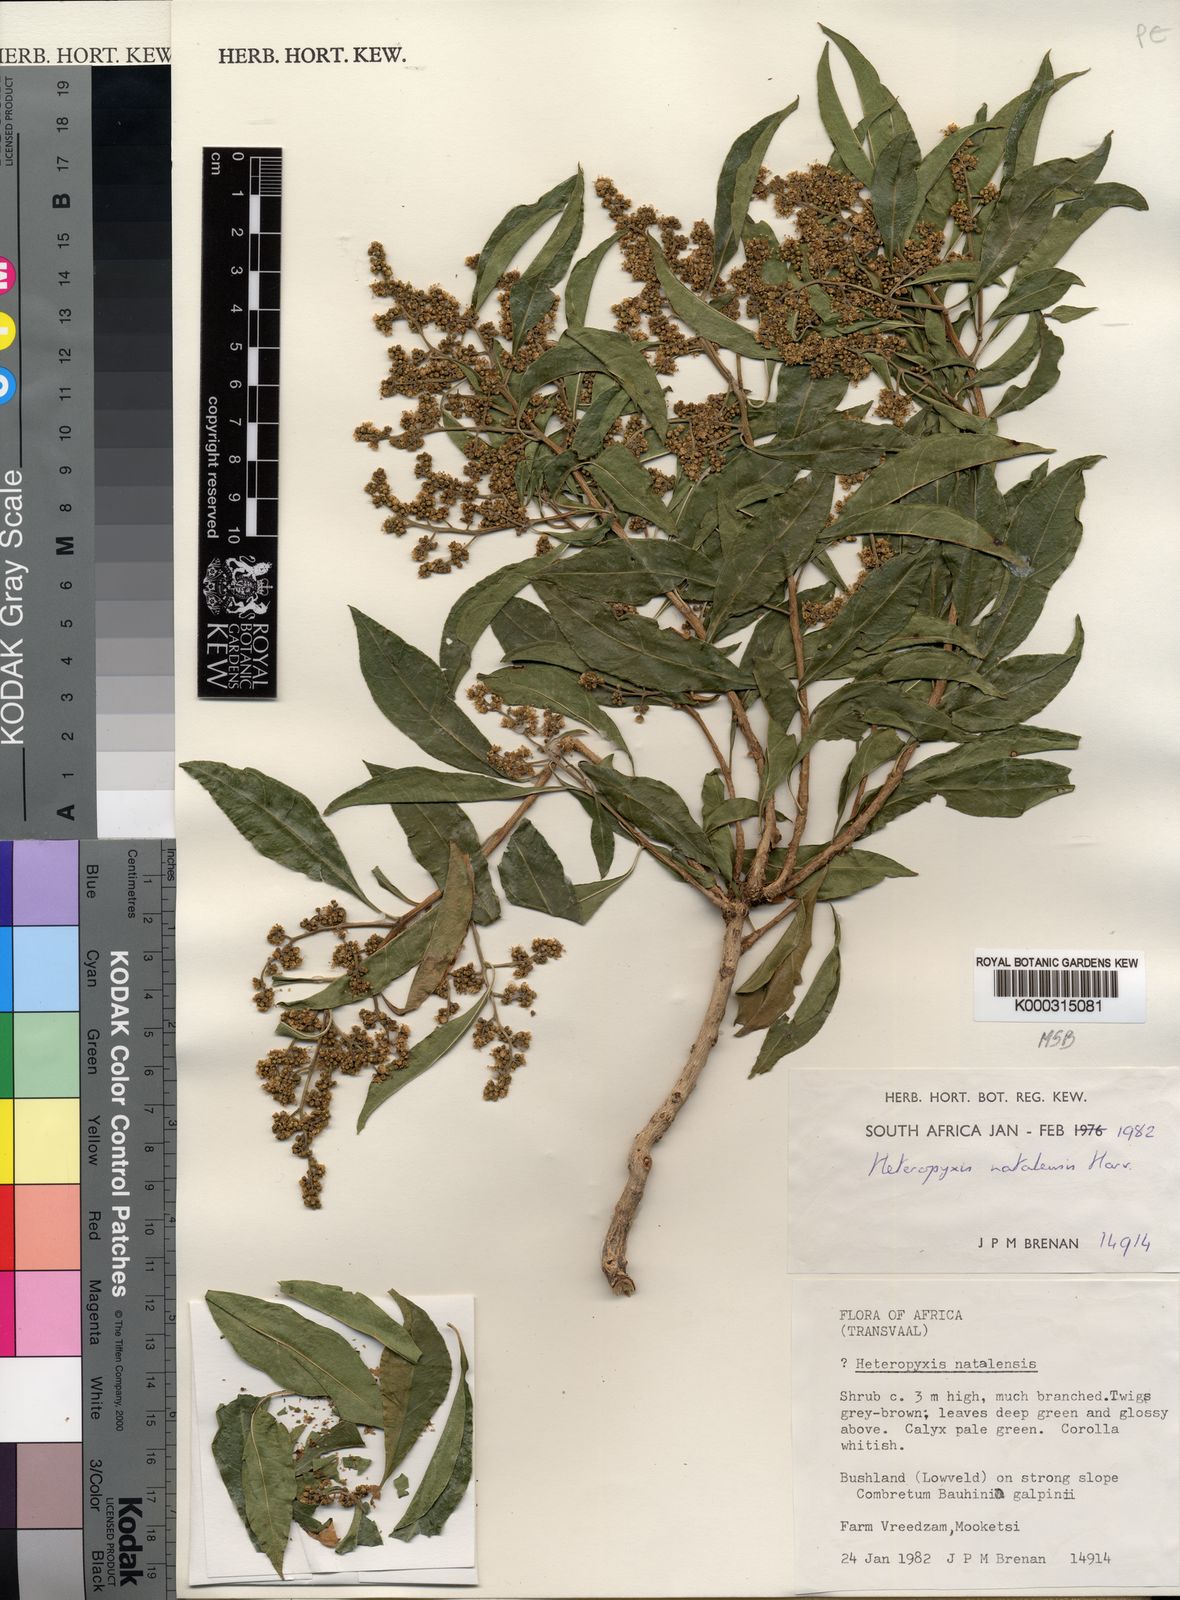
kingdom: Plantae
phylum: Tracheophyta
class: Magnoliopsida
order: Myrtales
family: Myrtaceae
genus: Heteropyxis
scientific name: Heteropyxis natalensis
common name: Lavender tree
